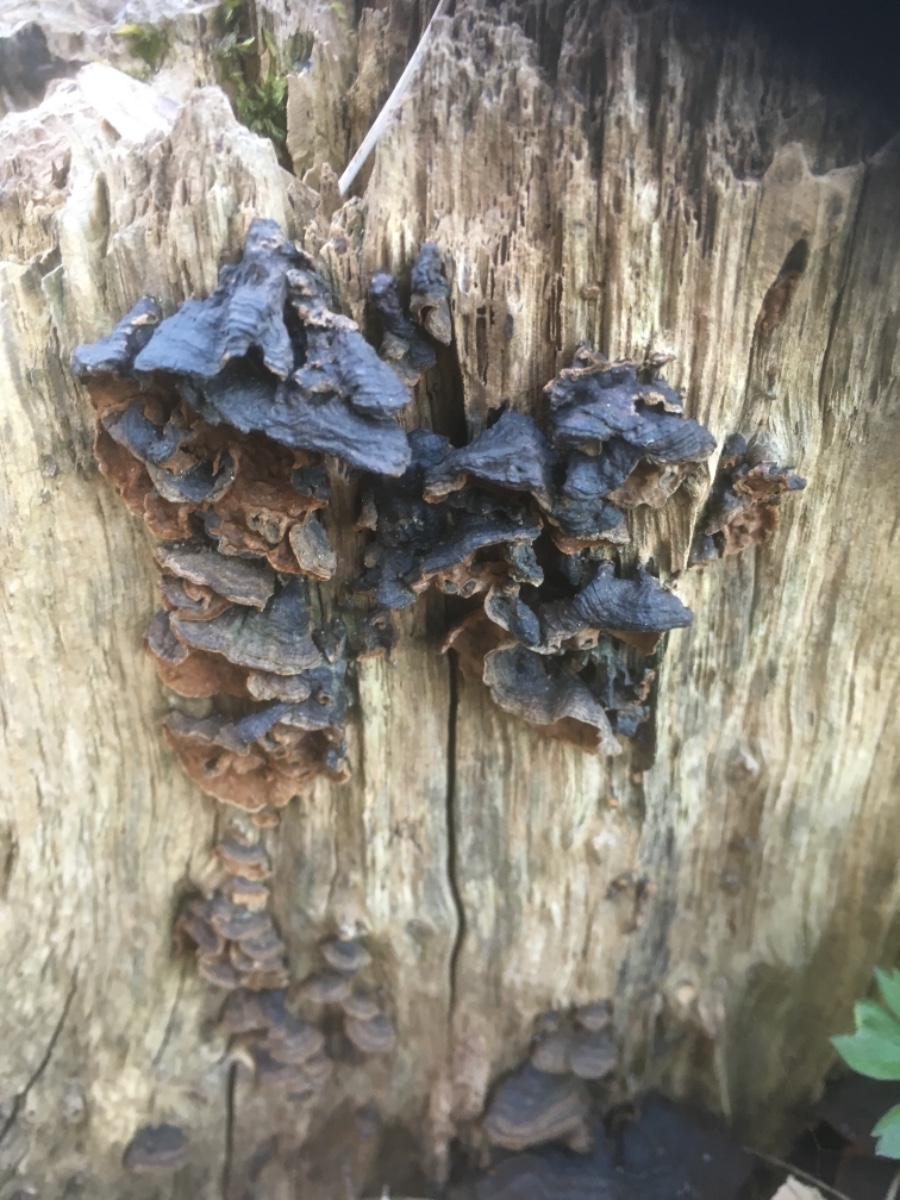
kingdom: Fungi
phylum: Basidiomycota
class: Agaricomycetes
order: Hymenochaetales
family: Hymenochaetaceae
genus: Hymenochaete
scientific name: Hymenochaete rubiginosa
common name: stiv ruslædersvamp
